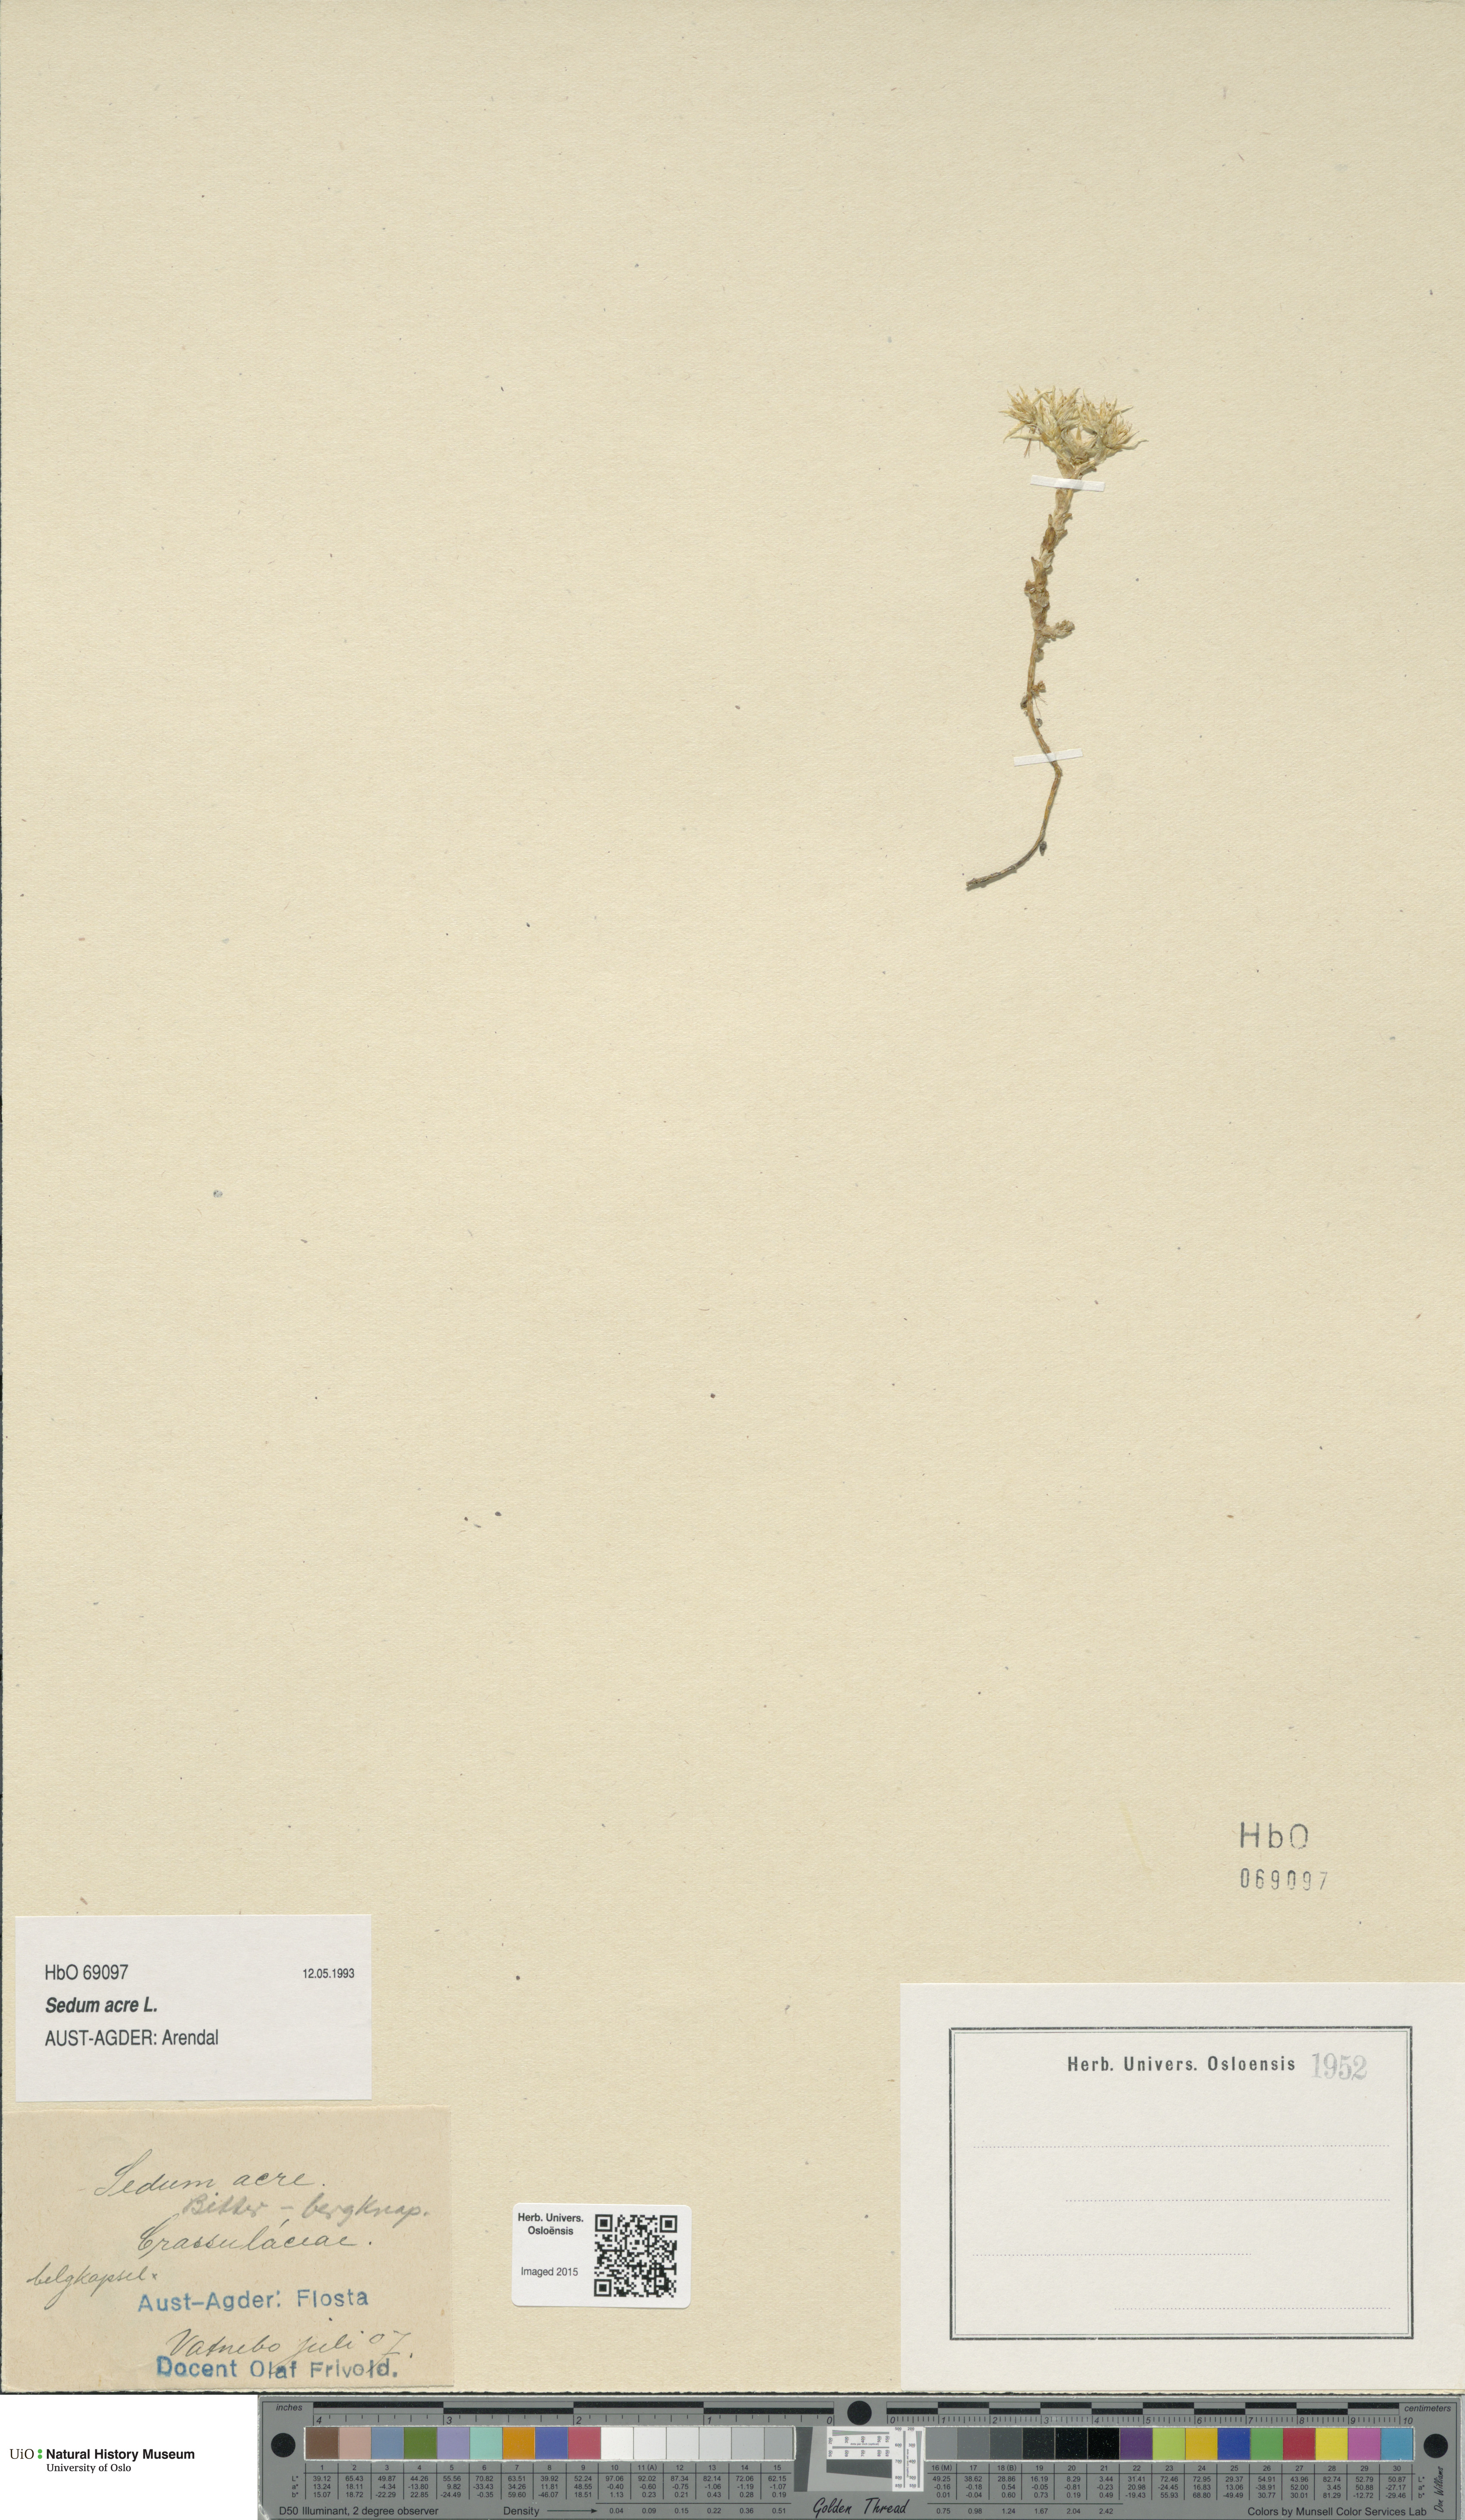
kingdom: Plantae
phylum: Tracheophyta
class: Magnoliopsida
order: Saxifragales
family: Crassulaceae
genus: Sedum
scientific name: Sedum acre
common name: Biting stonecrop
